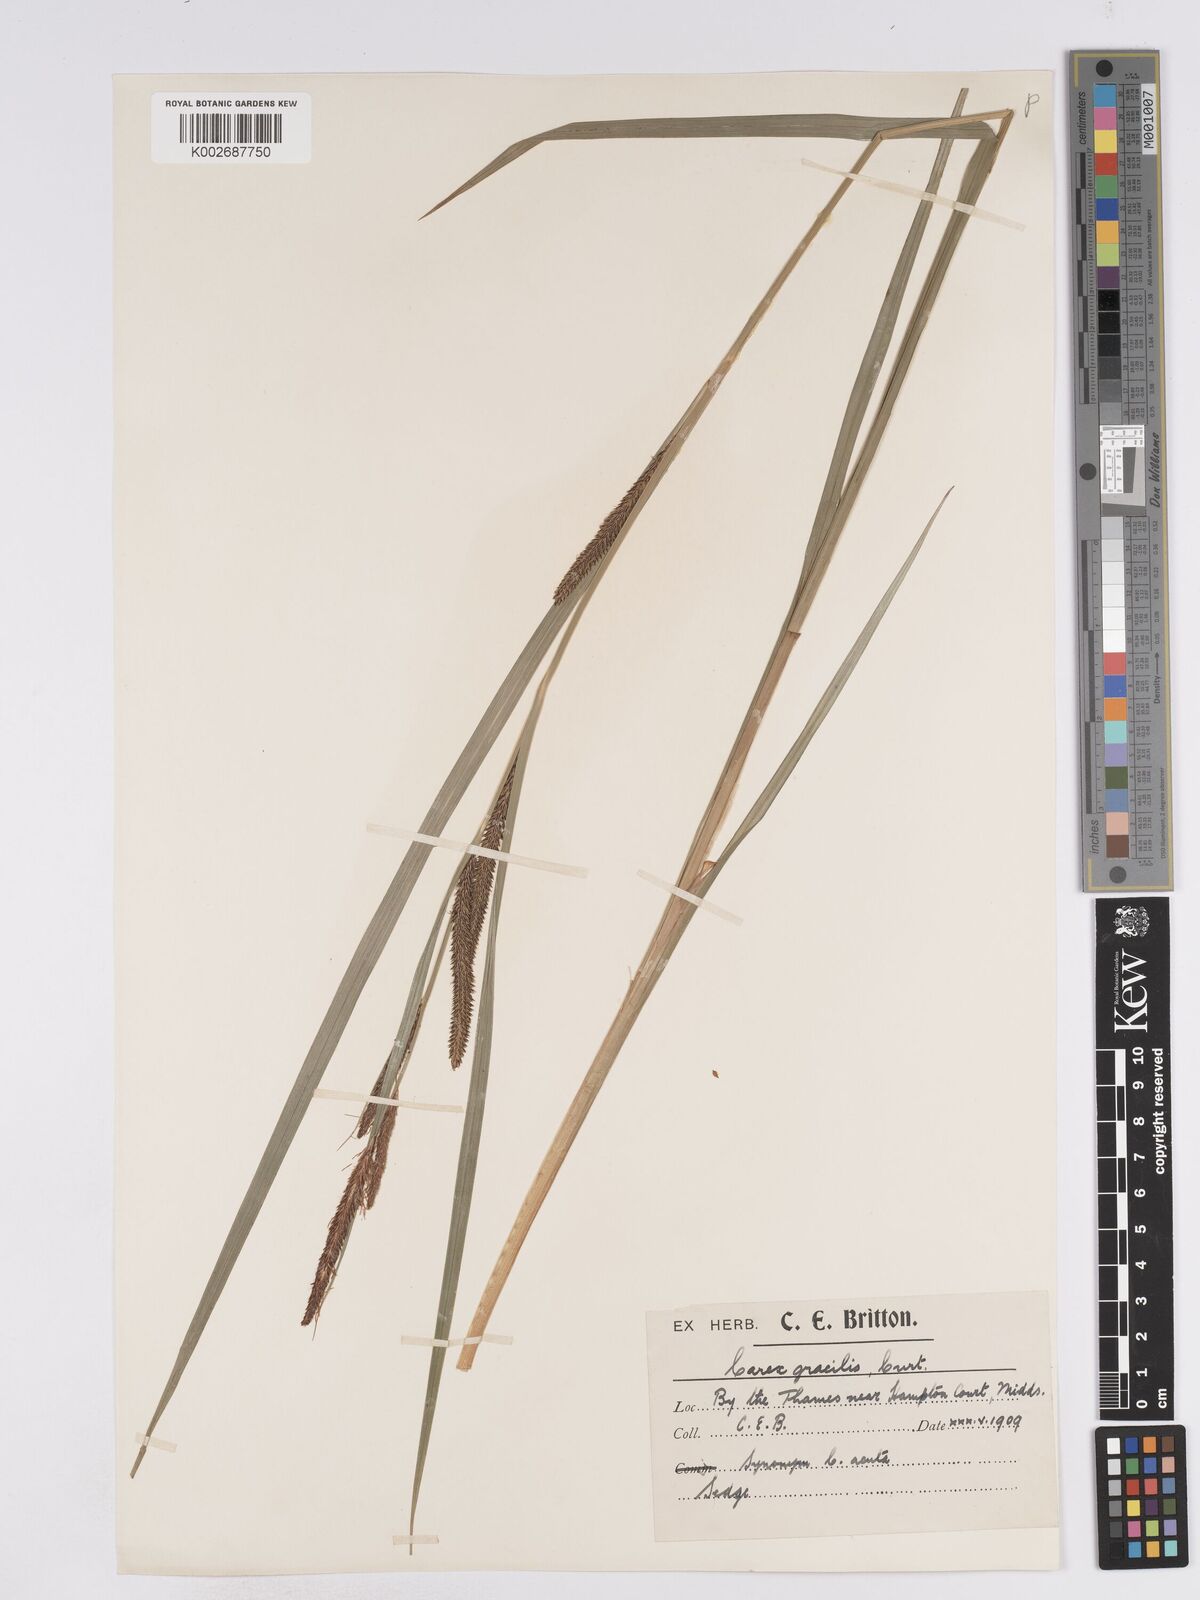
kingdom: Plantae
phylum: Tracheophyta
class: Liliopsida
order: Poales
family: Cyperaceae
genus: Carex
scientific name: Carex acuta
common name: Slender tufted-sedge
